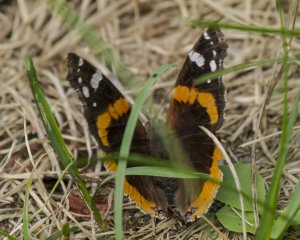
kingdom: Animalia
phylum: Arthropoda
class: Insecta
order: Lepidoptera
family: Nymphalidae
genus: Vanessa
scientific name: Vanessa atalanta
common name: Red Admiral
